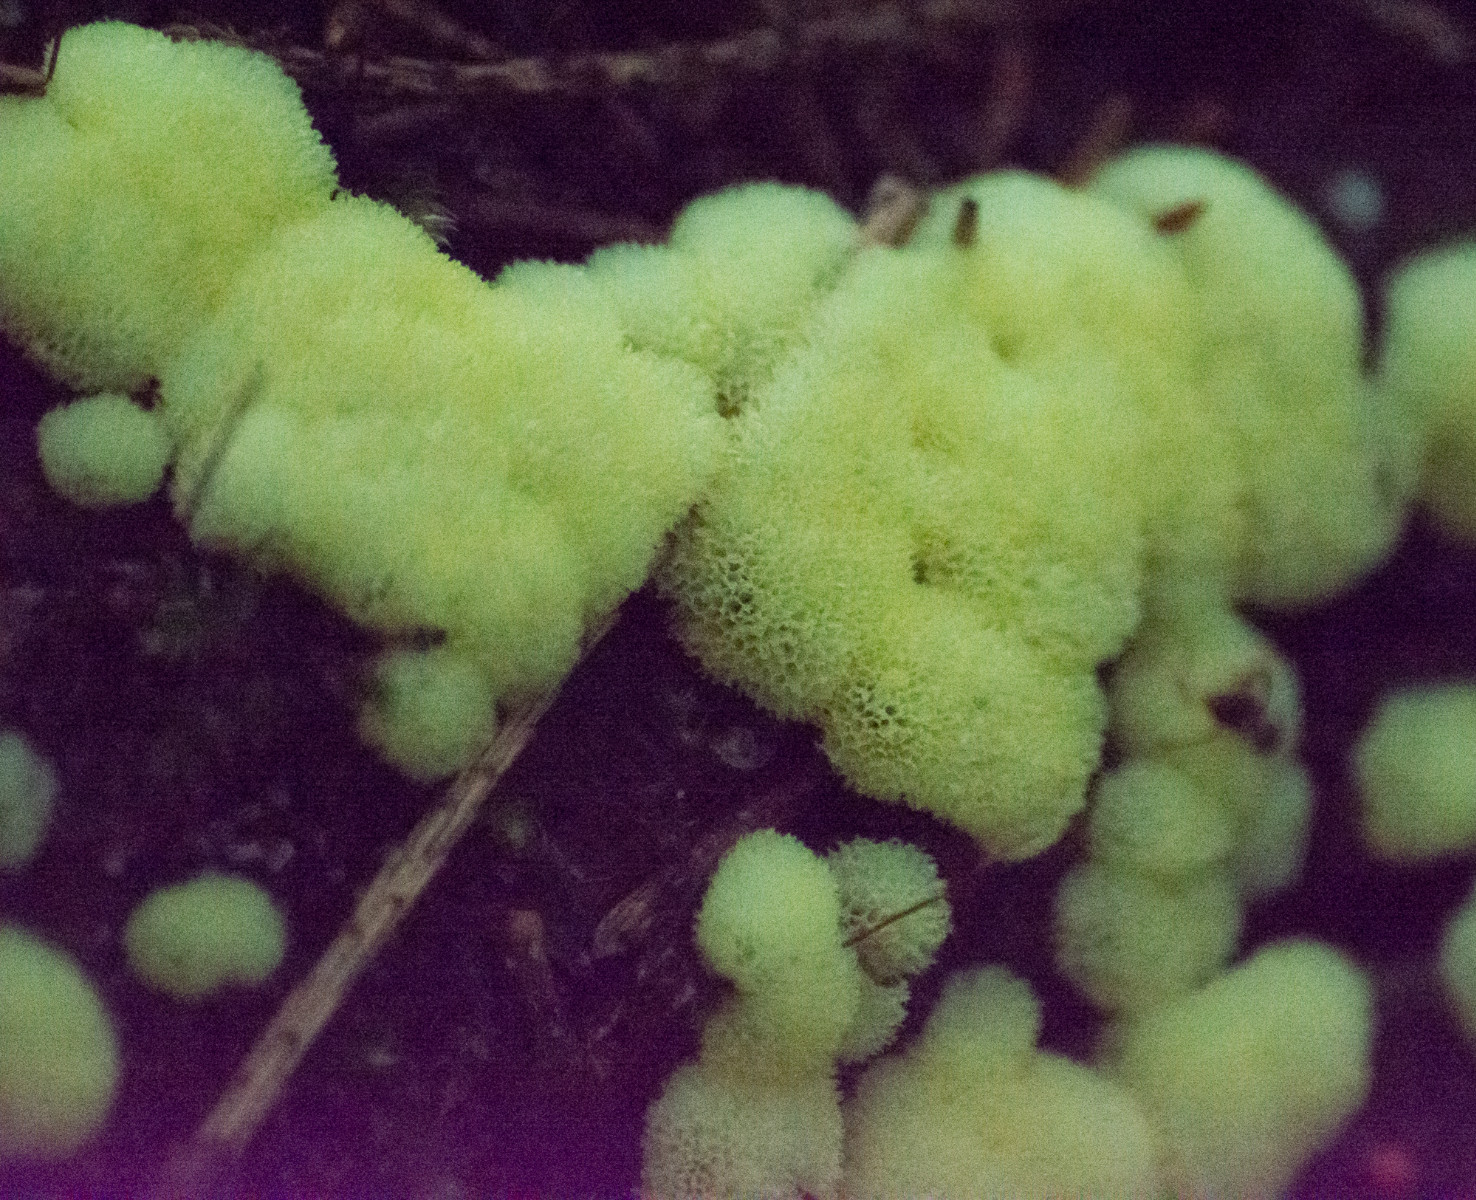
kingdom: Protozoa
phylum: Mycetozoa
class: Protosteliomycetes
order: Ceratiomyxales
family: Ceratiomyxaceae
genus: Ceratiomyxa
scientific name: Ceratiomyxa fruticulosa
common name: Honeycomb coral slime mold
